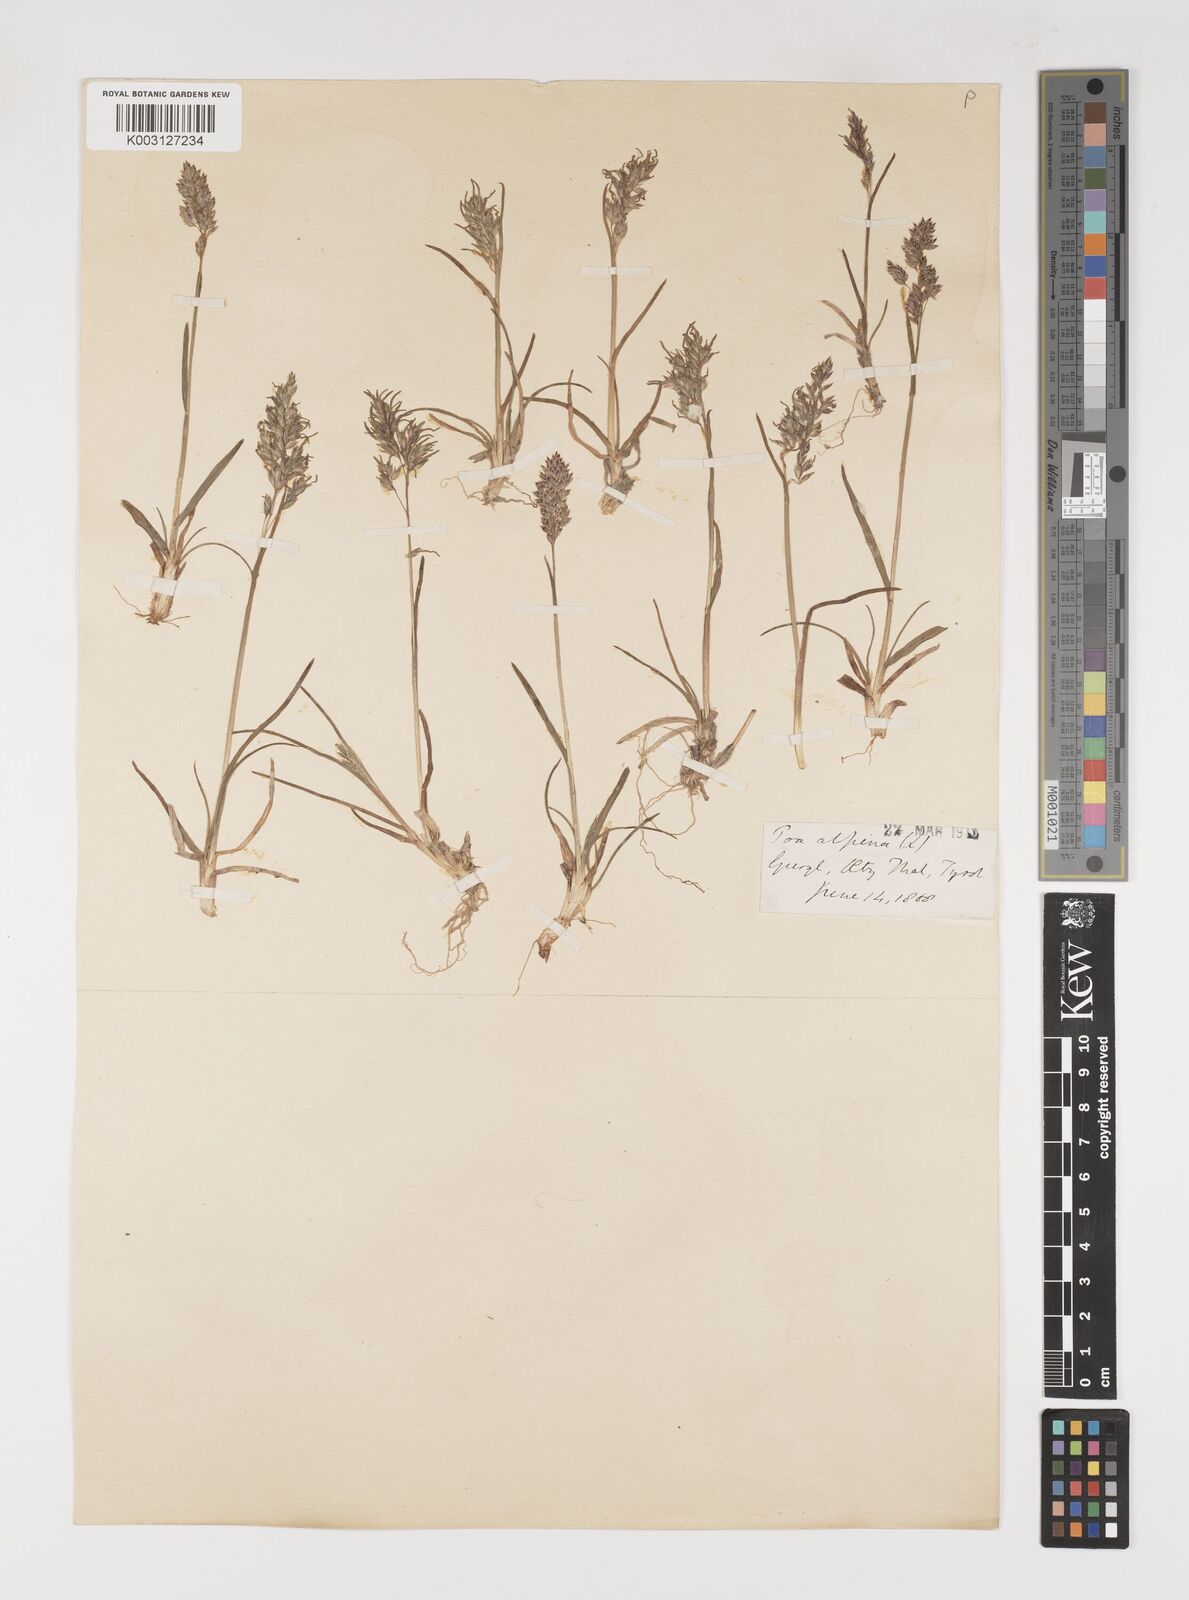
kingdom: Plantae
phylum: Tracheophyta
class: Liliopsida
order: Poales
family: Poaceae
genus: Poa
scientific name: Poa alpina
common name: Alpine bluegrass
